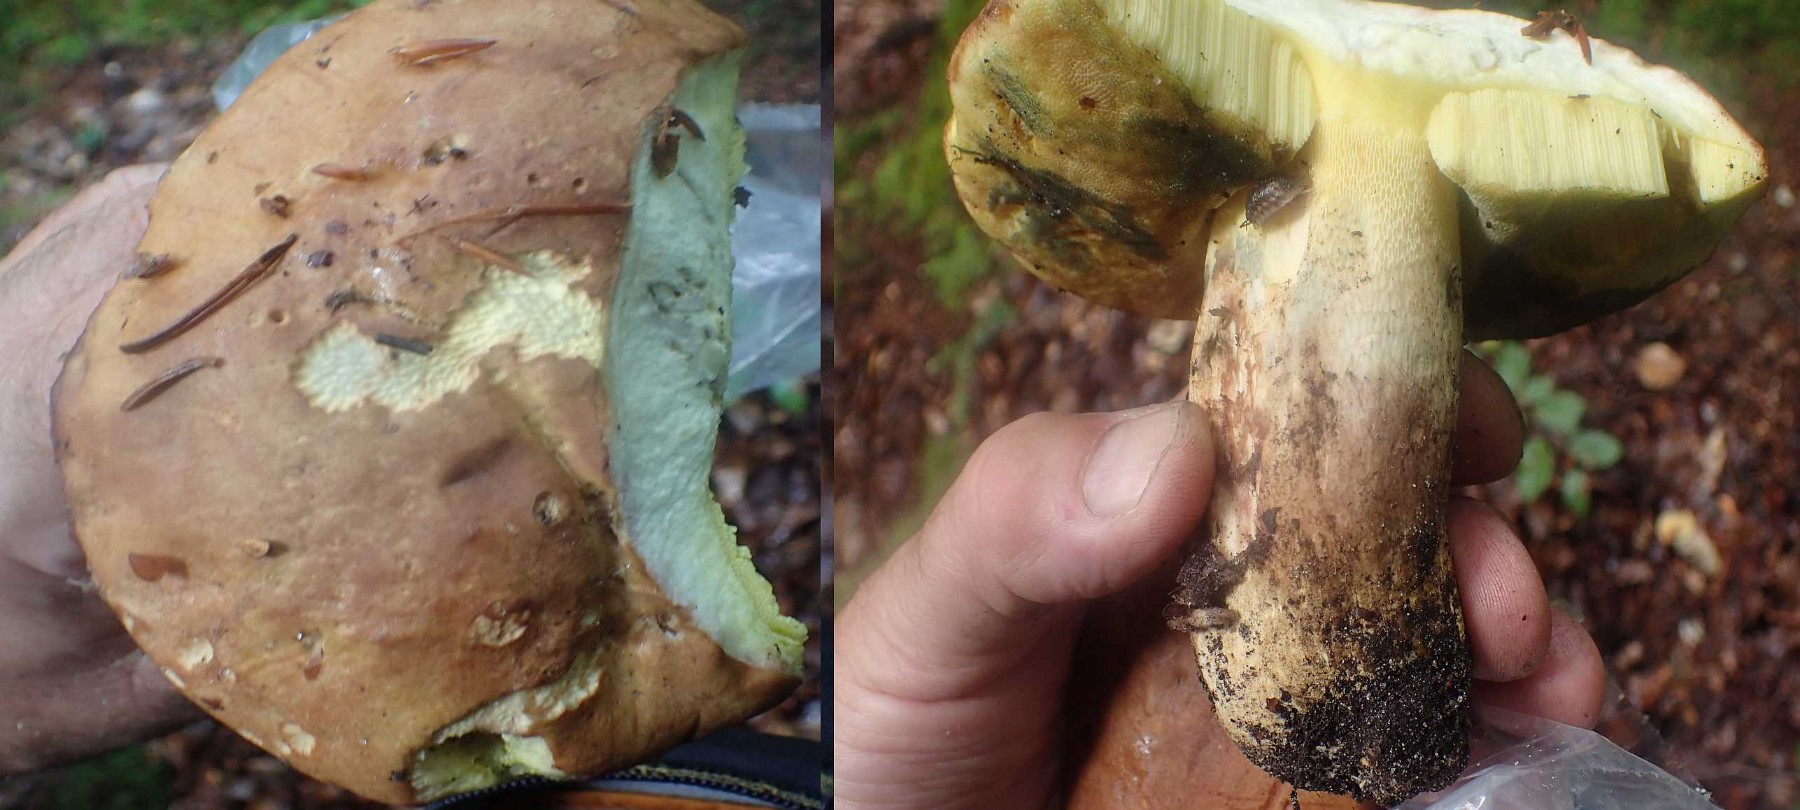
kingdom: Fungi
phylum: Basidiomycota
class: Agaricomycetes
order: Boletales
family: Boletaceae
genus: Caloboletus
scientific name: Caloboletus radicans
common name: rod-rørhat
